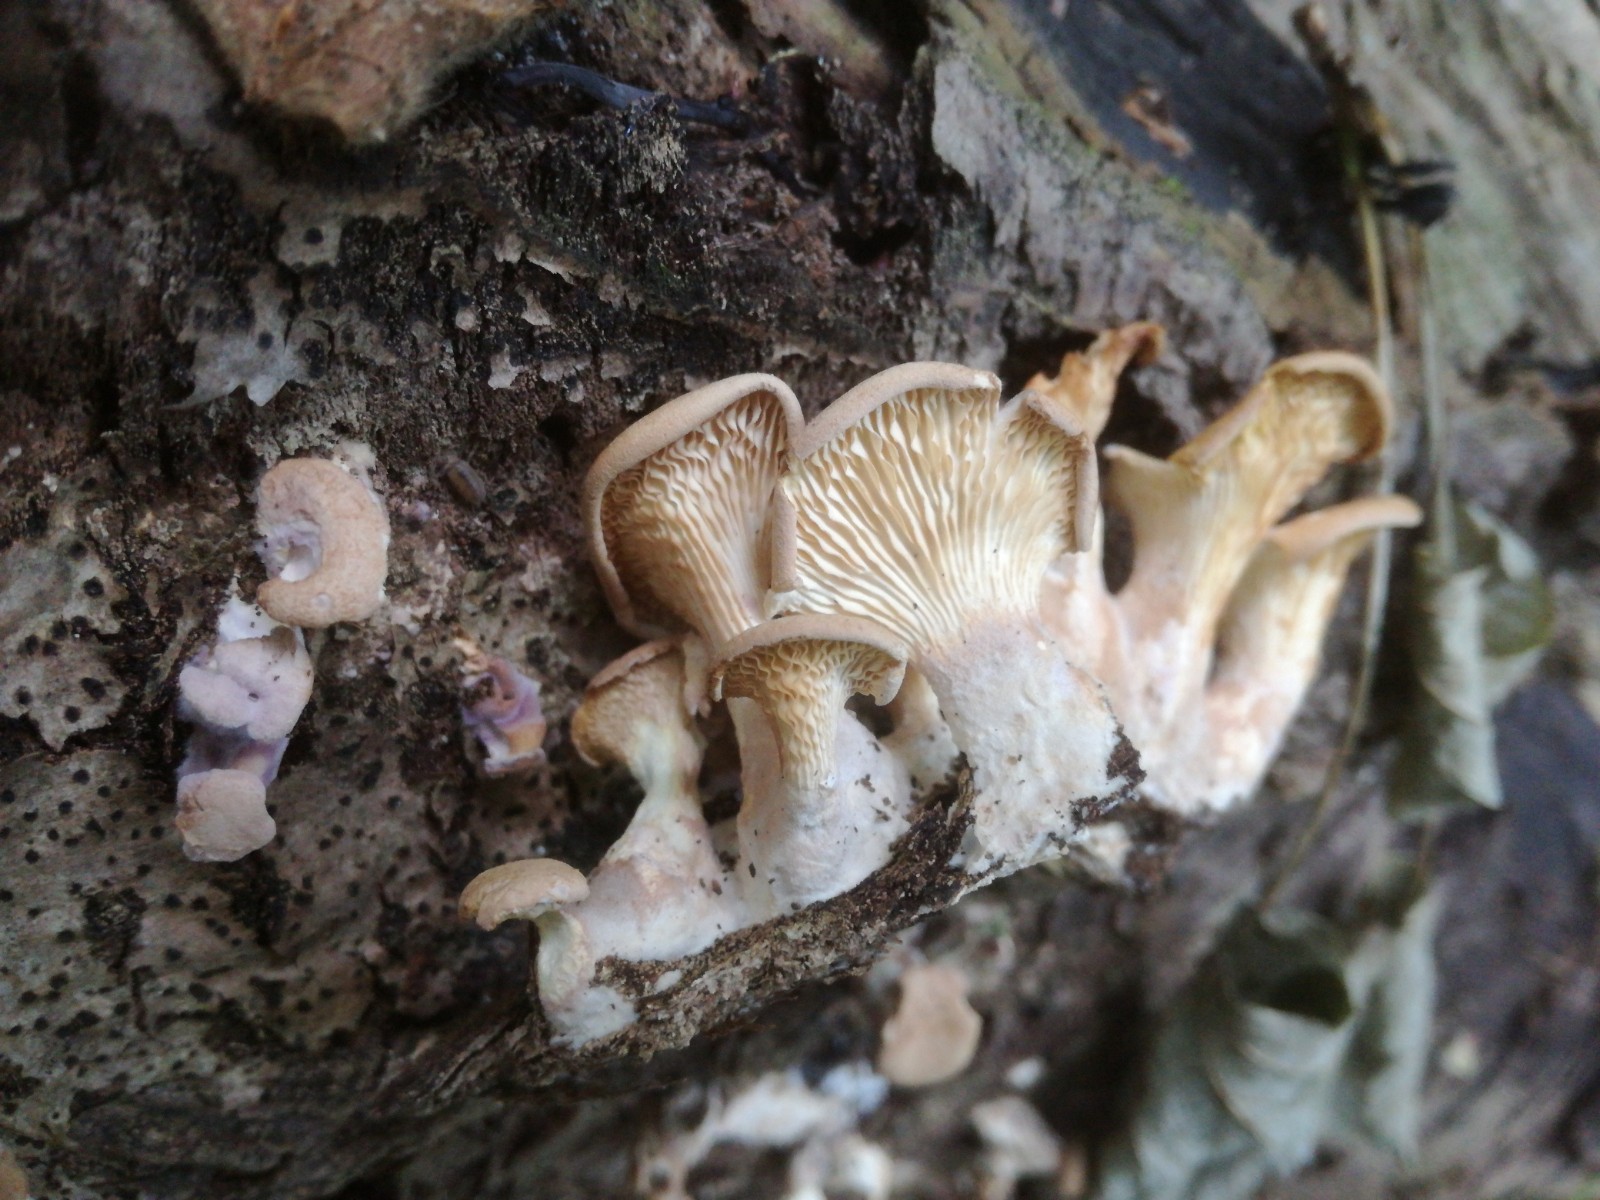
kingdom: Fungi
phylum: Basidiomycota
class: Agaricomycetes
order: Polyporales
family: Panaceae
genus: Panus
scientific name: Panus conchatus
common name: filtstokket læderhat
